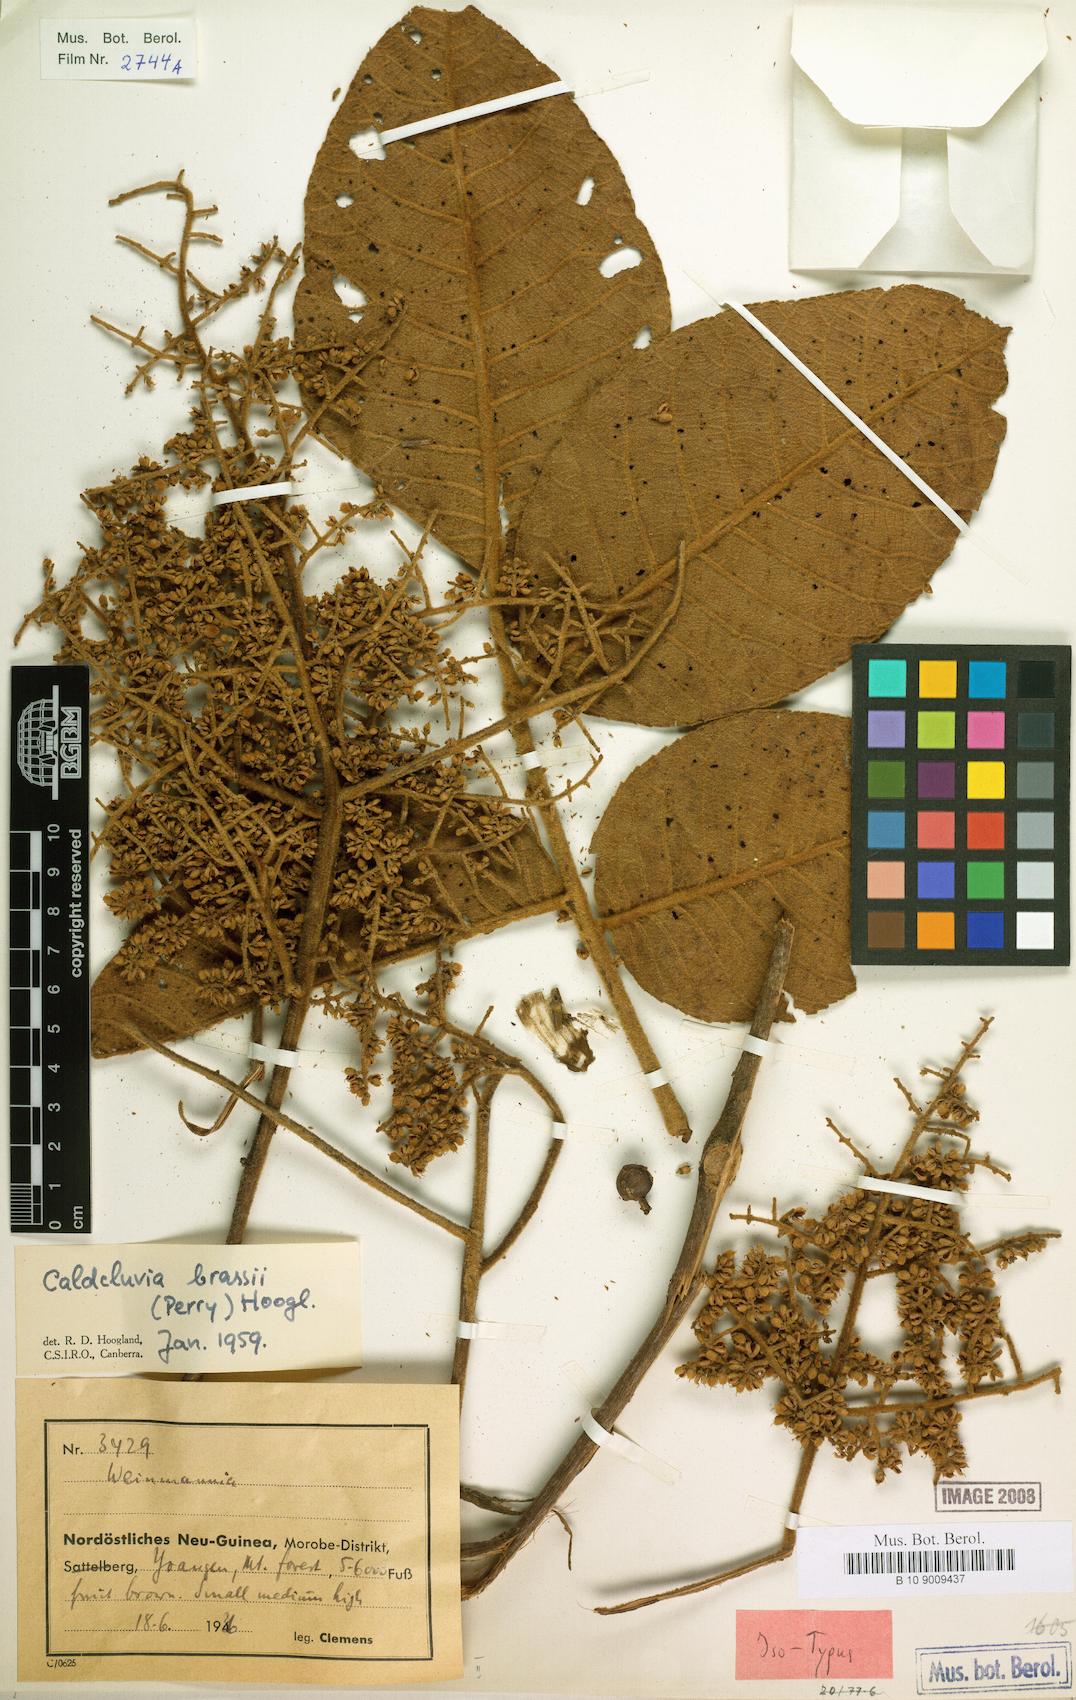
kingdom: Plantae
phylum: Tracheophyta
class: Magnoliopsida
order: Oxalidales
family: Cunoniaceae
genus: Ackama
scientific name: Ackama brassii
